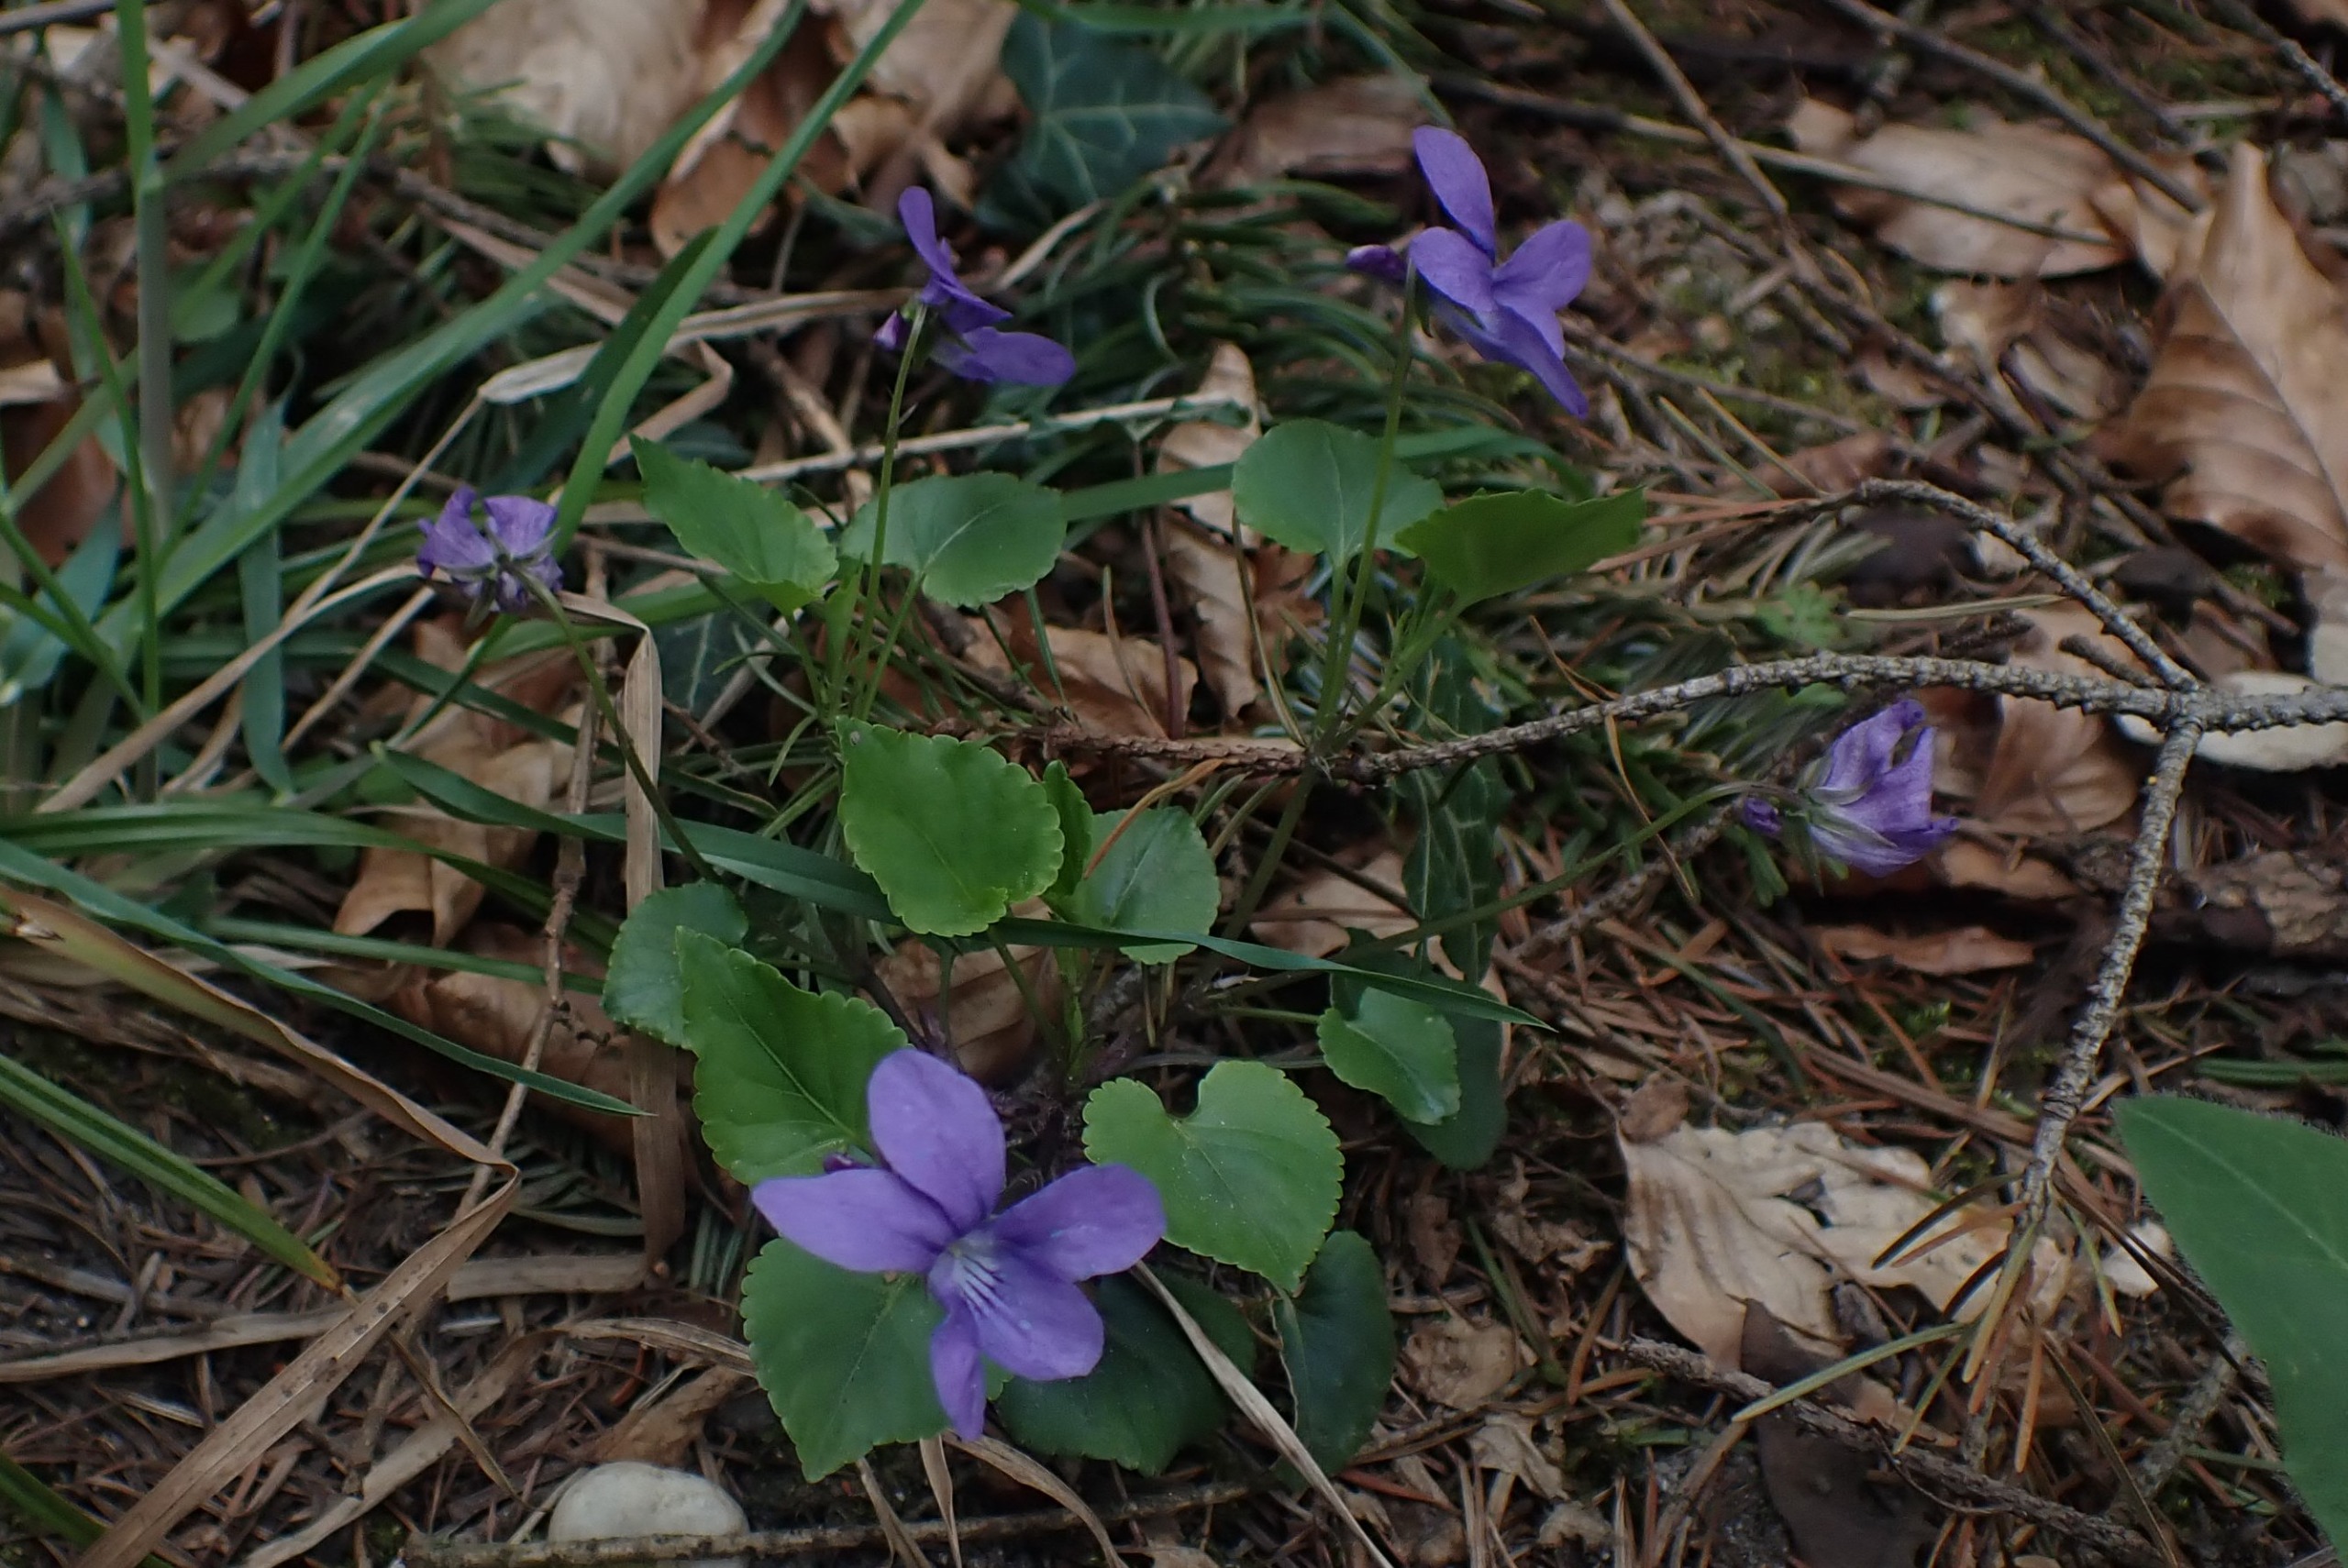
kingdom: Plantae
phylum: Tracheophyta
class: Magnoliopsida
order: Malpighiales
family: Violaceae
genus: Viola
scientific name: Viola reichenbachiana
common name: Skov-viol
